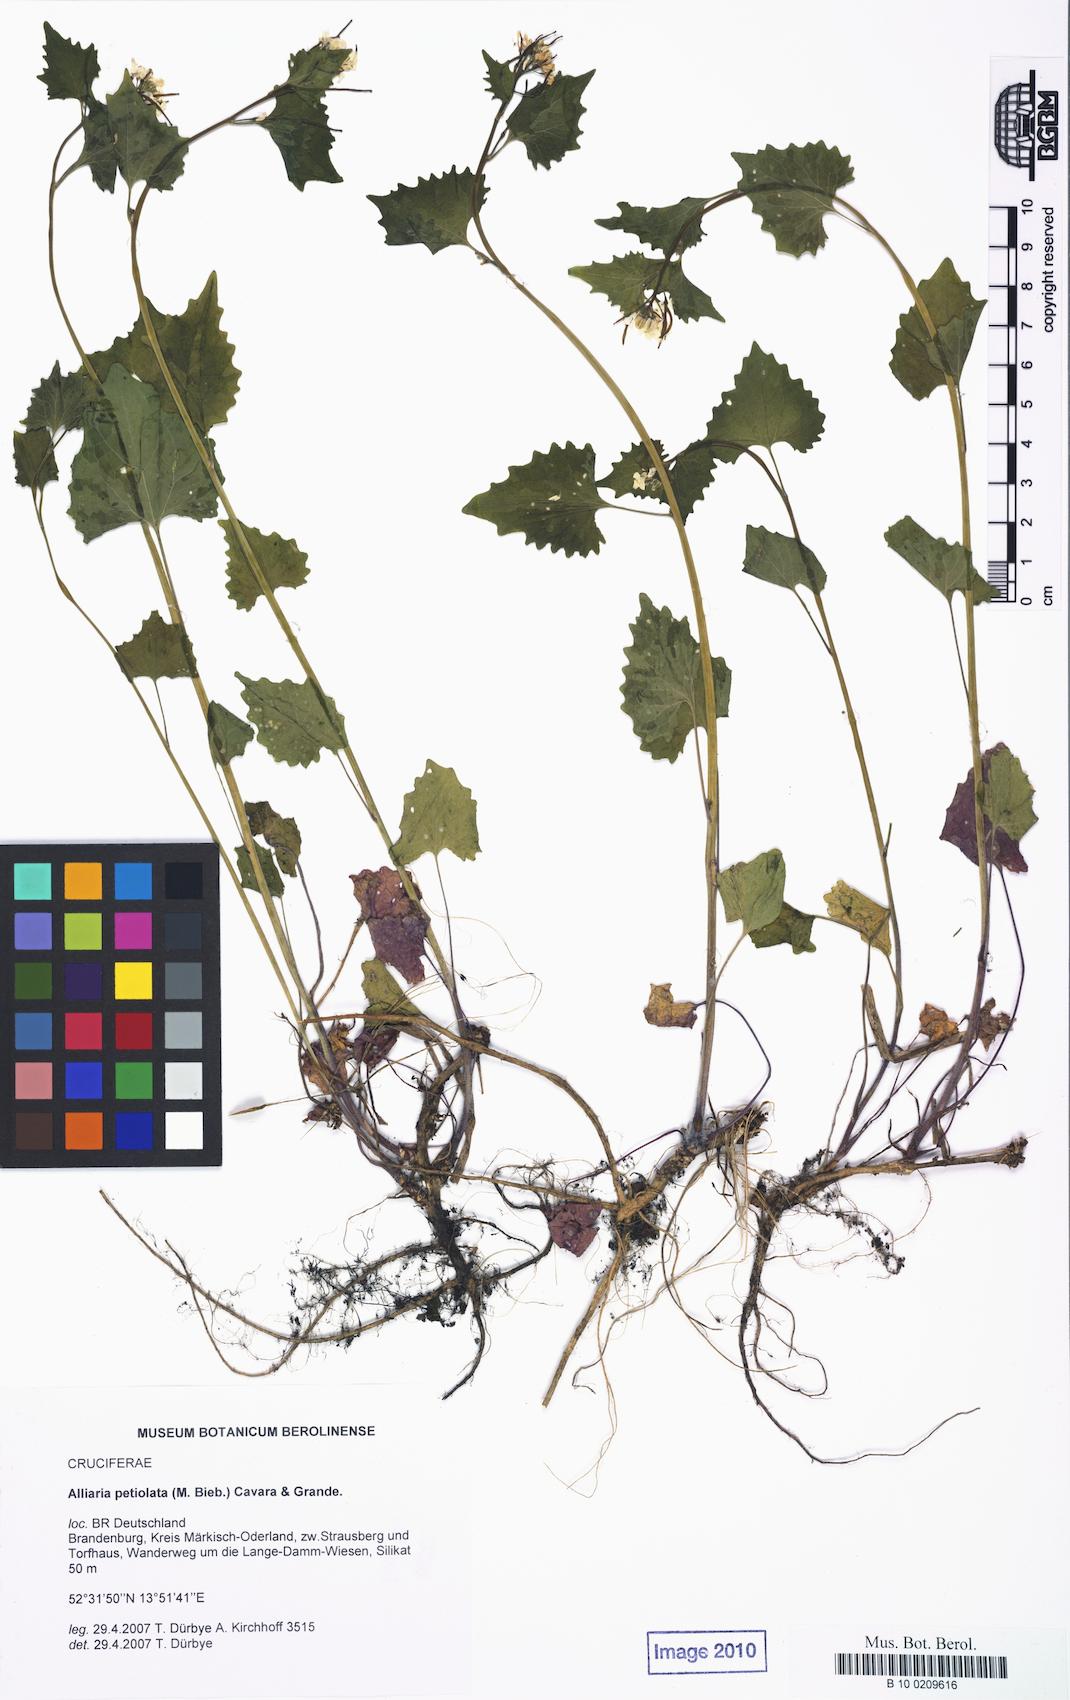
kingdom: Plantae
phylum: Tracheophyta
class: Magnoliopsida
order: Brassicales
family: Brassicaceae
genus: Alliaria
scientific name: Alliaria petiolata
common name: Garlic mustard
